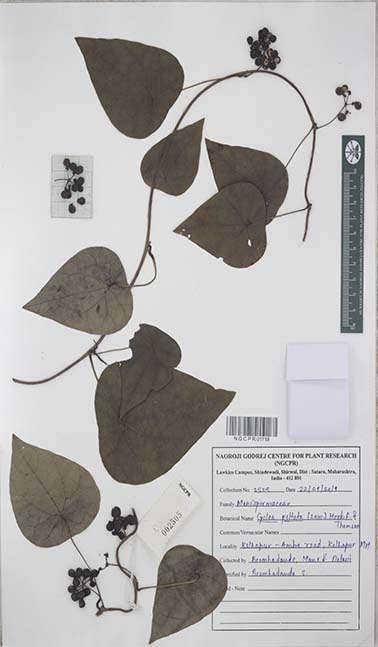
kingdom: Plantae
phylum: Tracheophyta
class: Magnoliopsida
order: Ranunculales
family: Menispermaceae
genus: Cyclea
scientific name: Cyclea peltata
